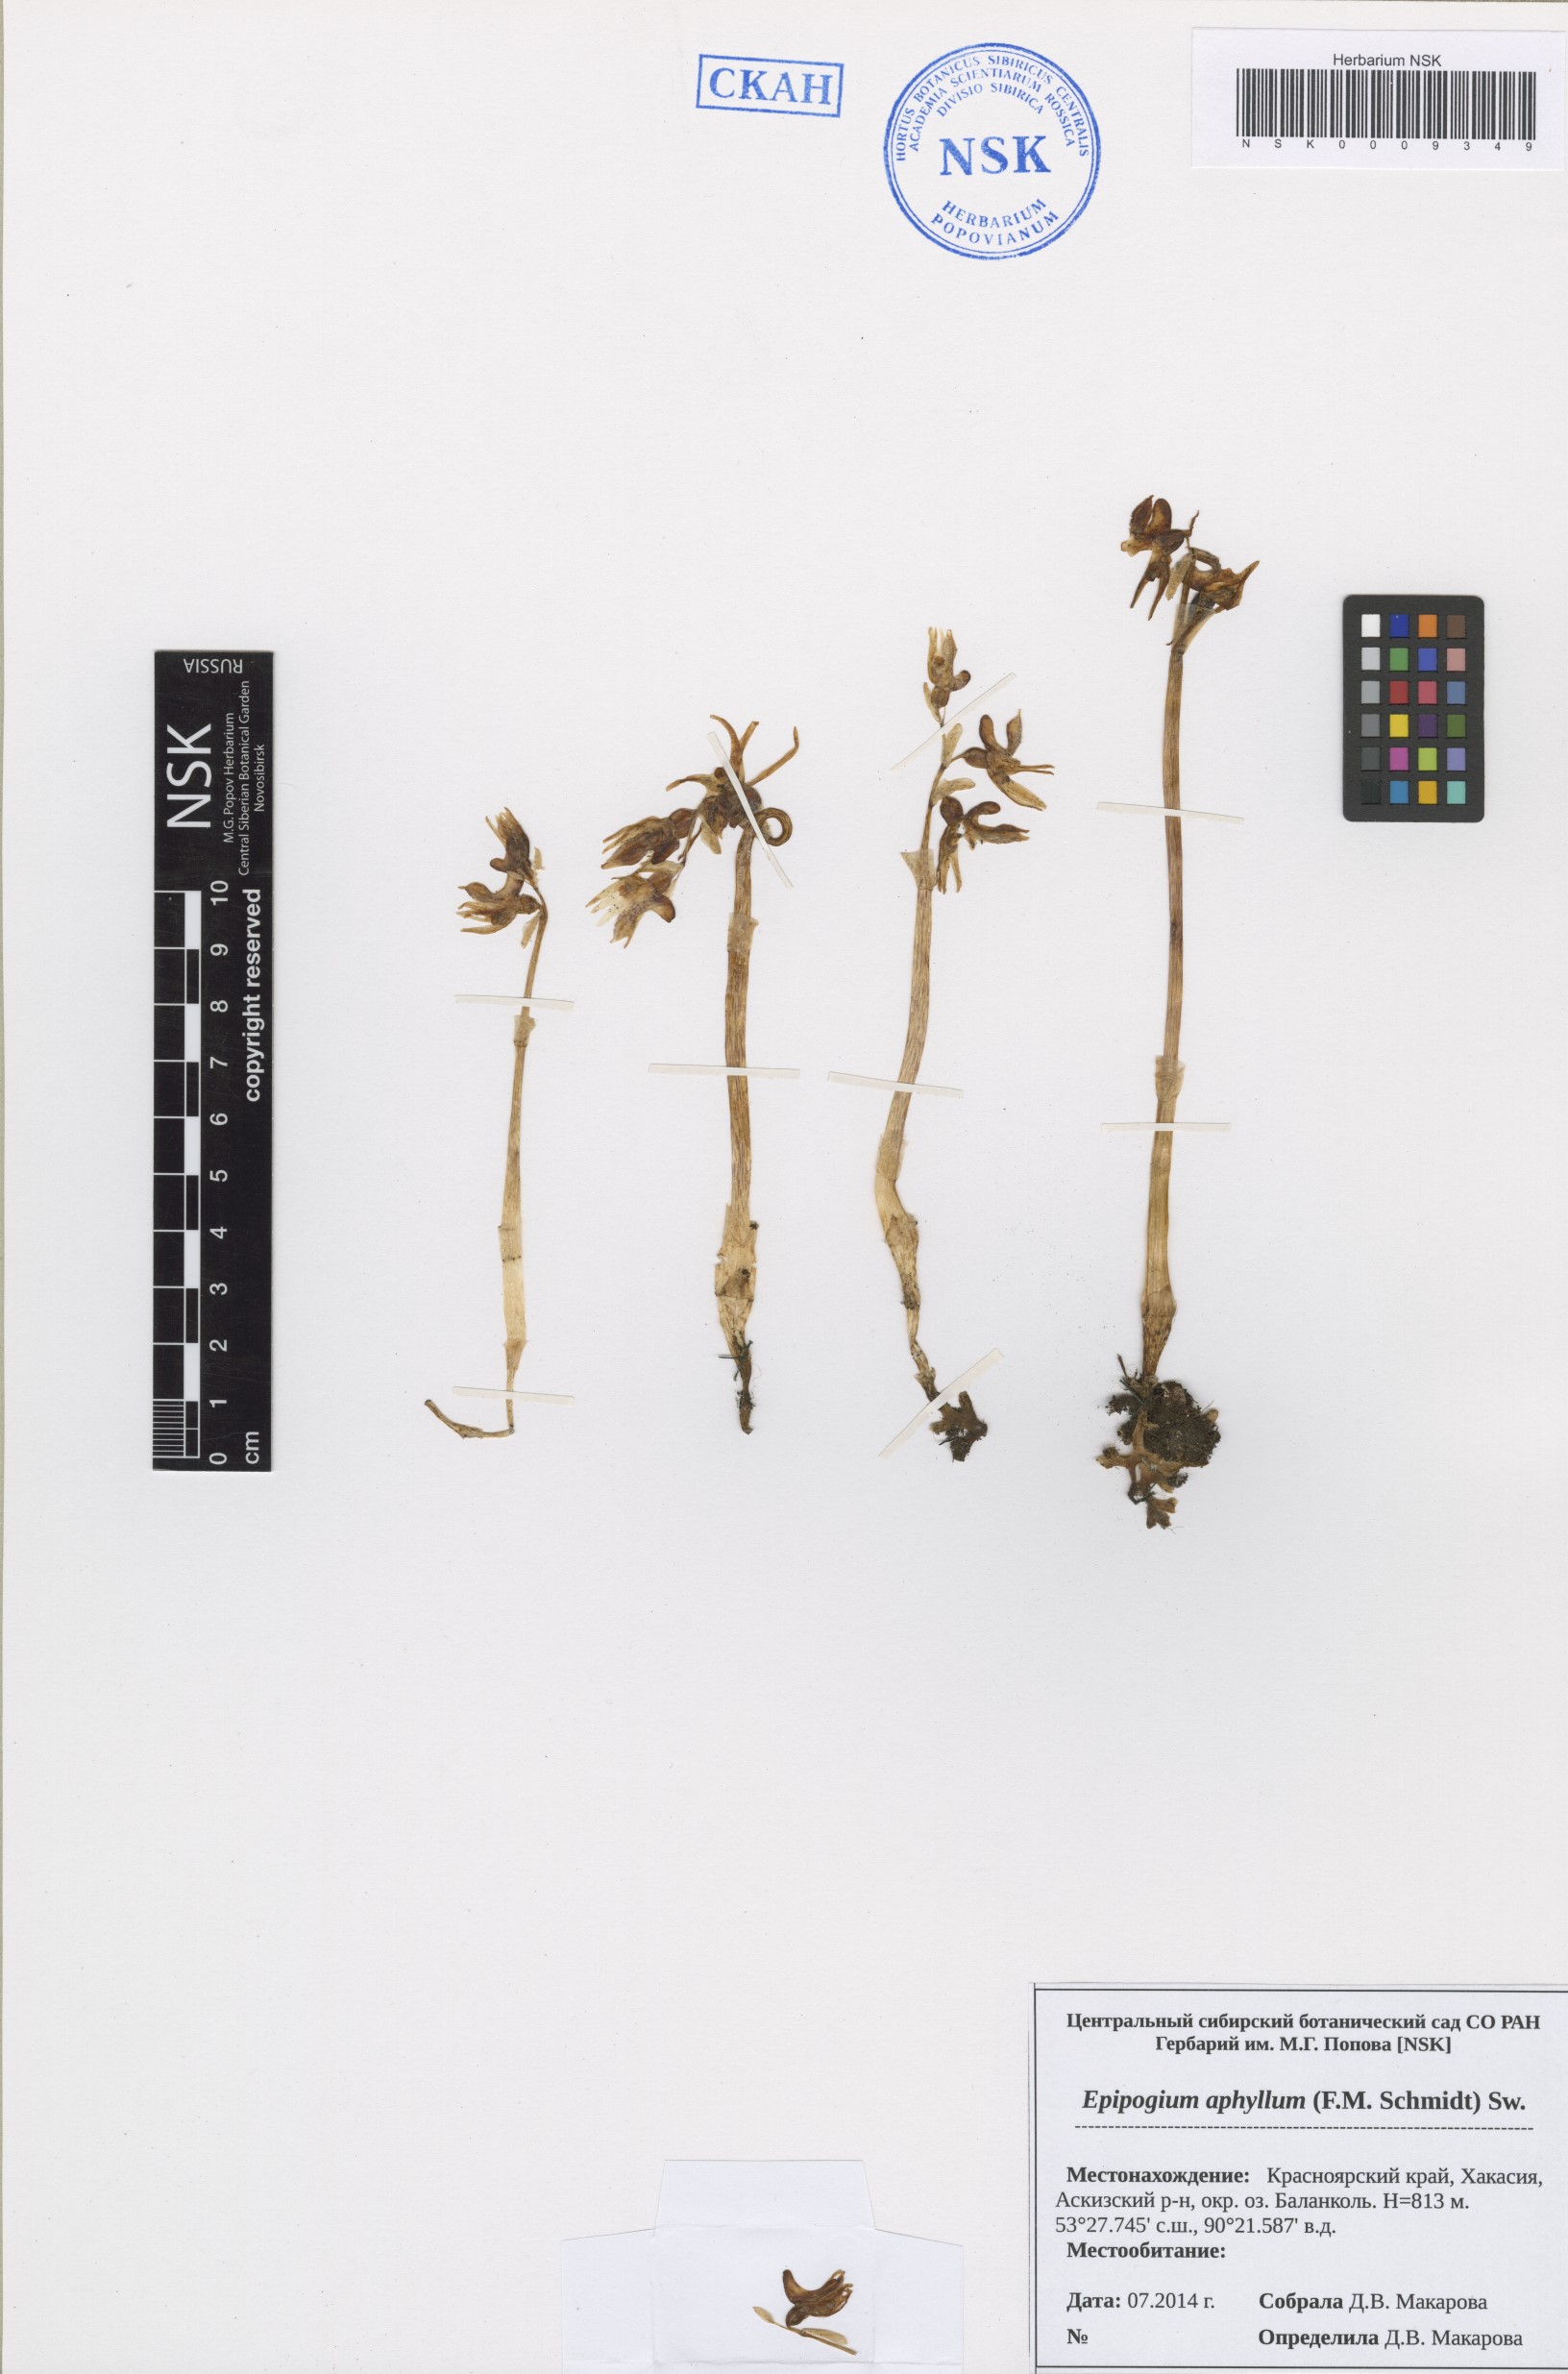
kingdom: Plantae
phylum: Tracheophyta
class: Liliopsida
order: Asparagales
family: Orchidaceae
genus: Epipogium
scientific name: Epipogium aphyllum
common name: Ghost orchid
